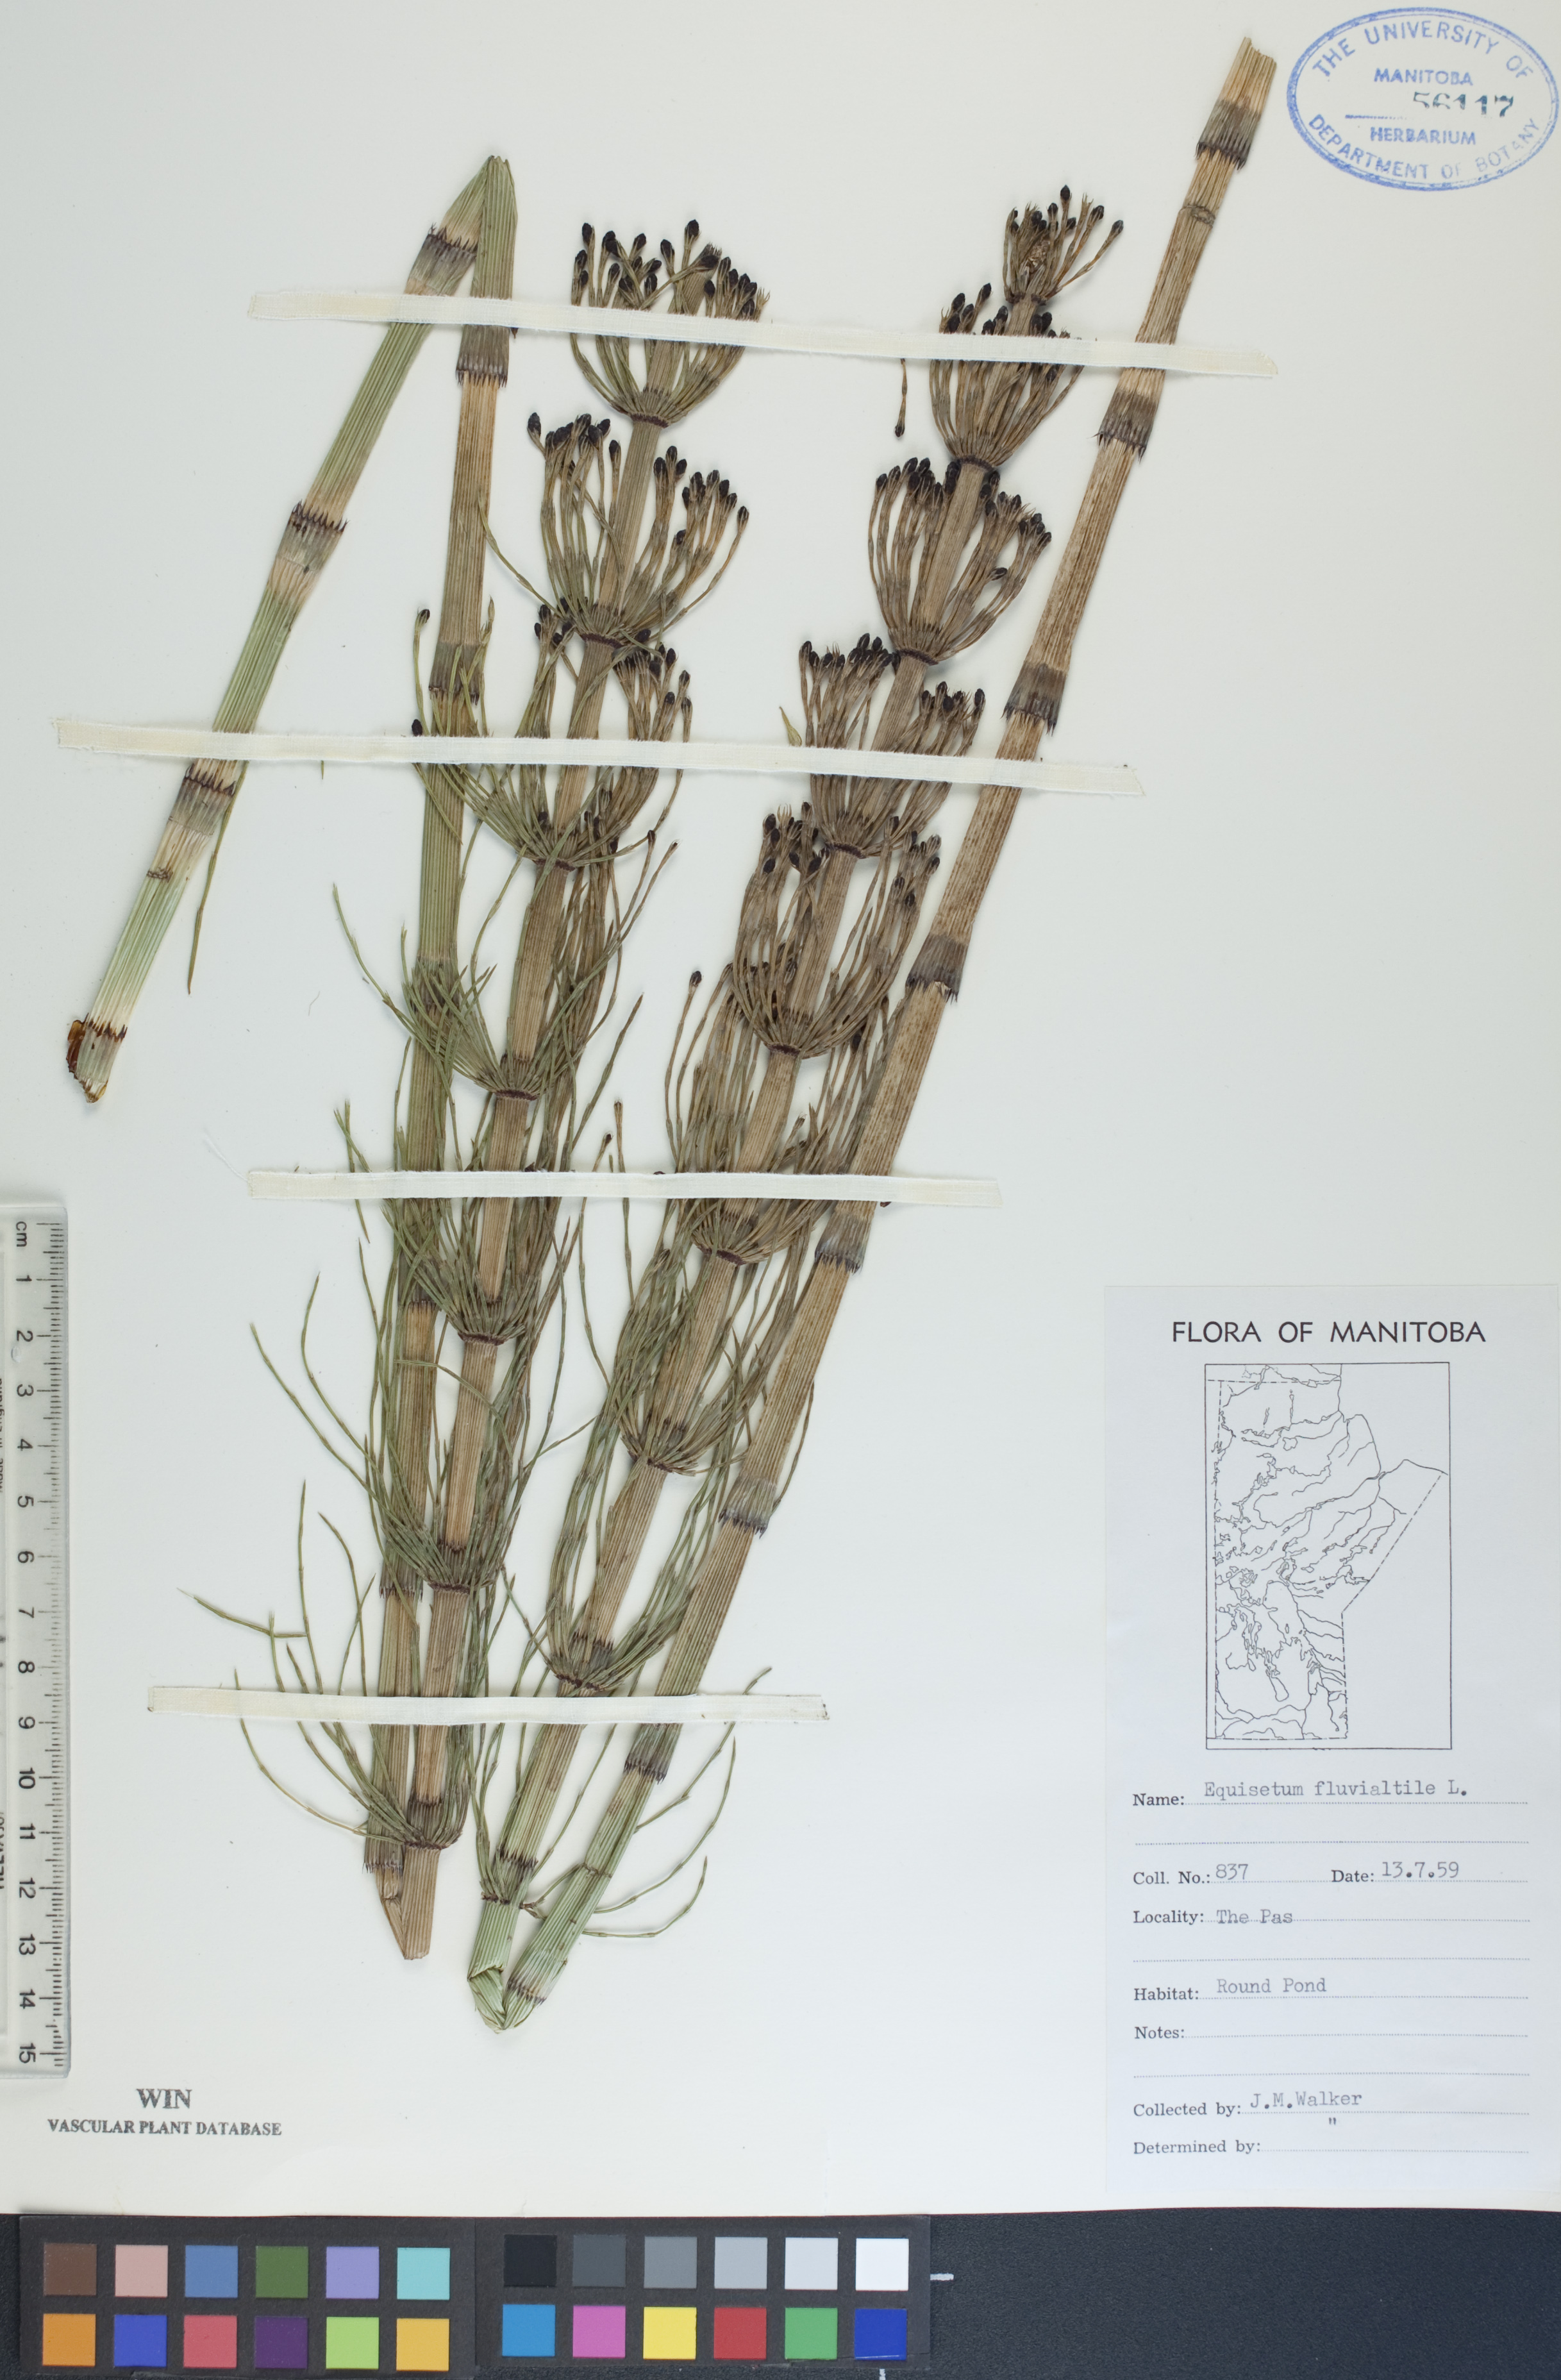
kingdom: Plantae
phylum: Tracheophyta
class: Polypodiopsida
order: Equisetales
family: Equisetaceae
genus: Equisetum
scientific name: Equisetum fluviatile
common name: Water horsetail
